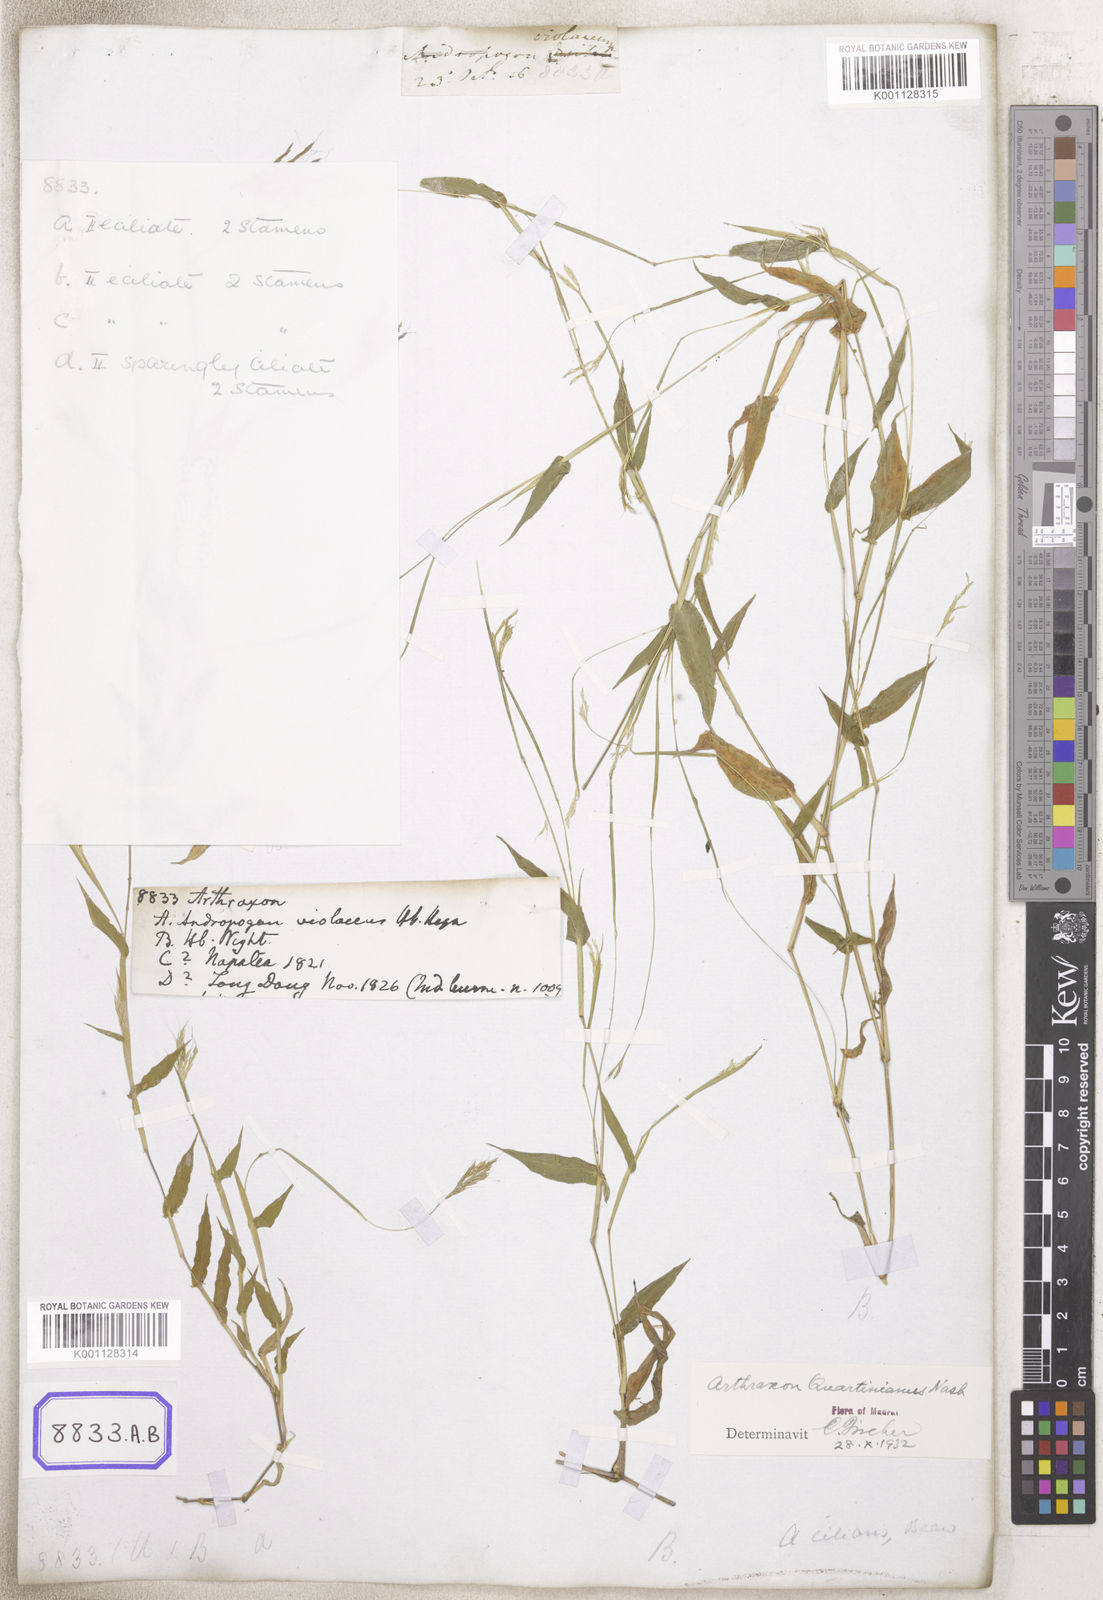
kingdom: Plantae
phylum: Tracheophyta
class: Liliopsida
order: Poales
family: Poaceae
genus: Arthraxon
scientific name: Arthraxon
